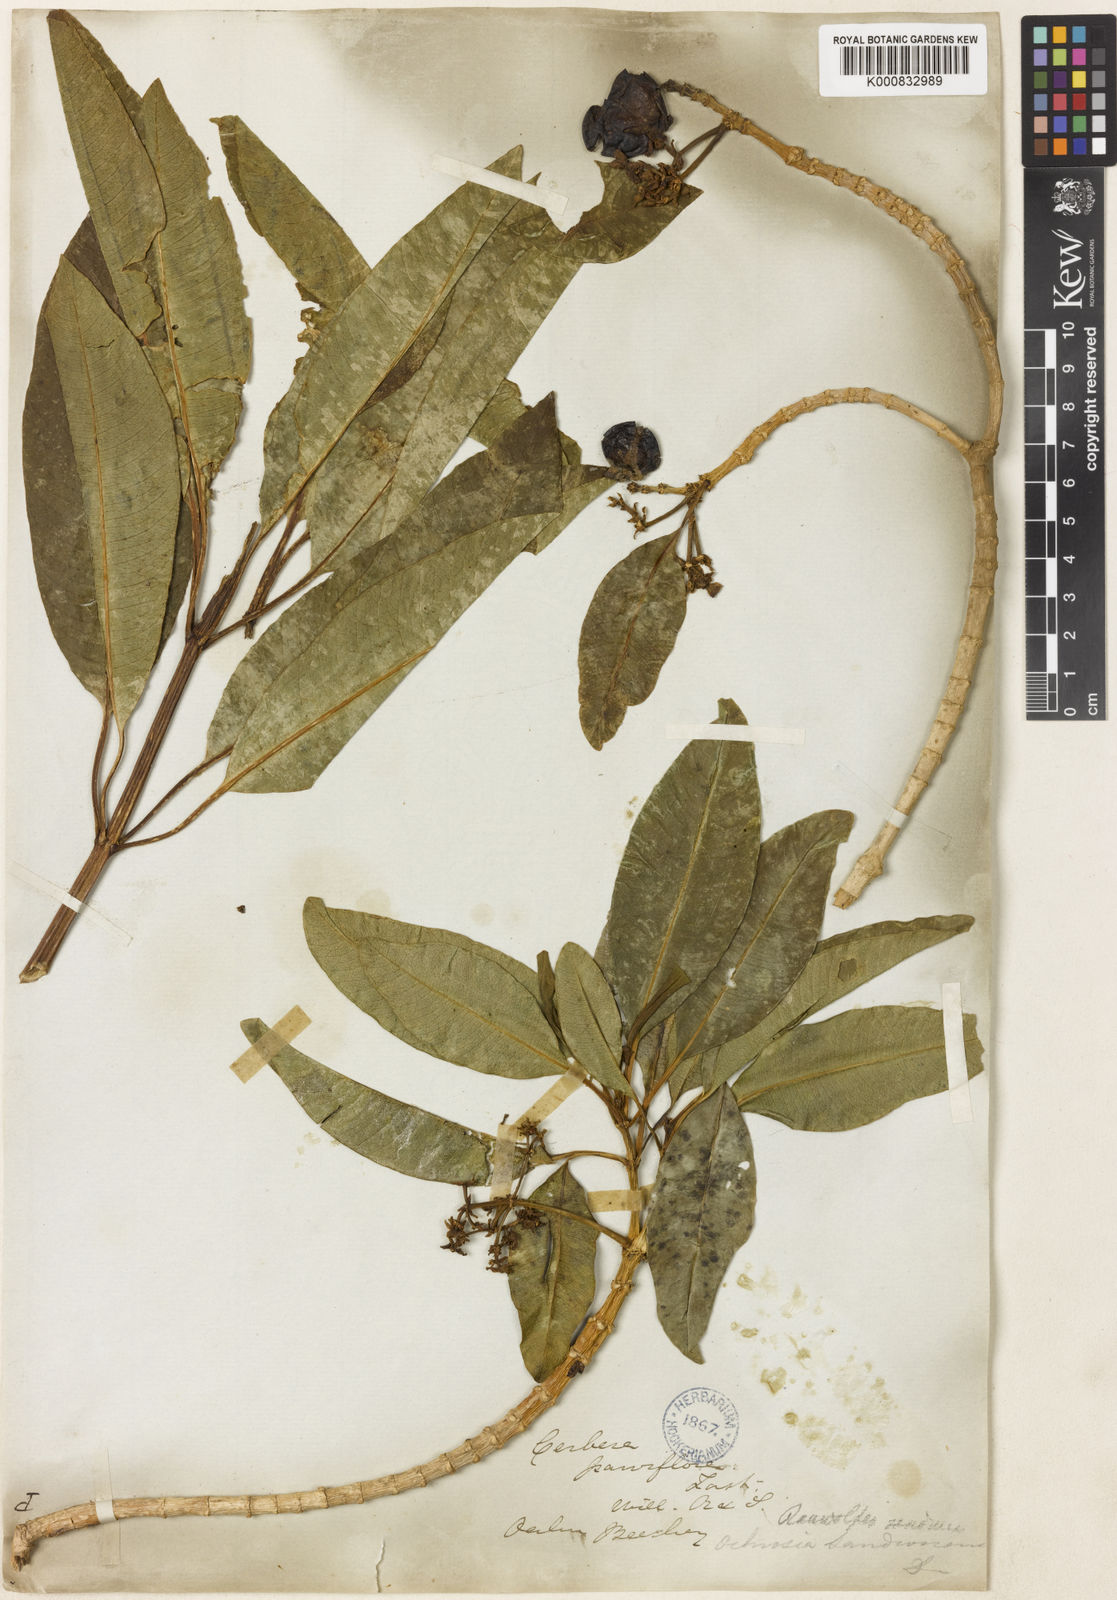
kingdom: Plantae
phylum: Tracheophyta
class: Magnoliopsida
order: Gentianales
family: Apocynaceae
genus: Rauvolfia
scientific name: Rauvolfia sandwicensis
